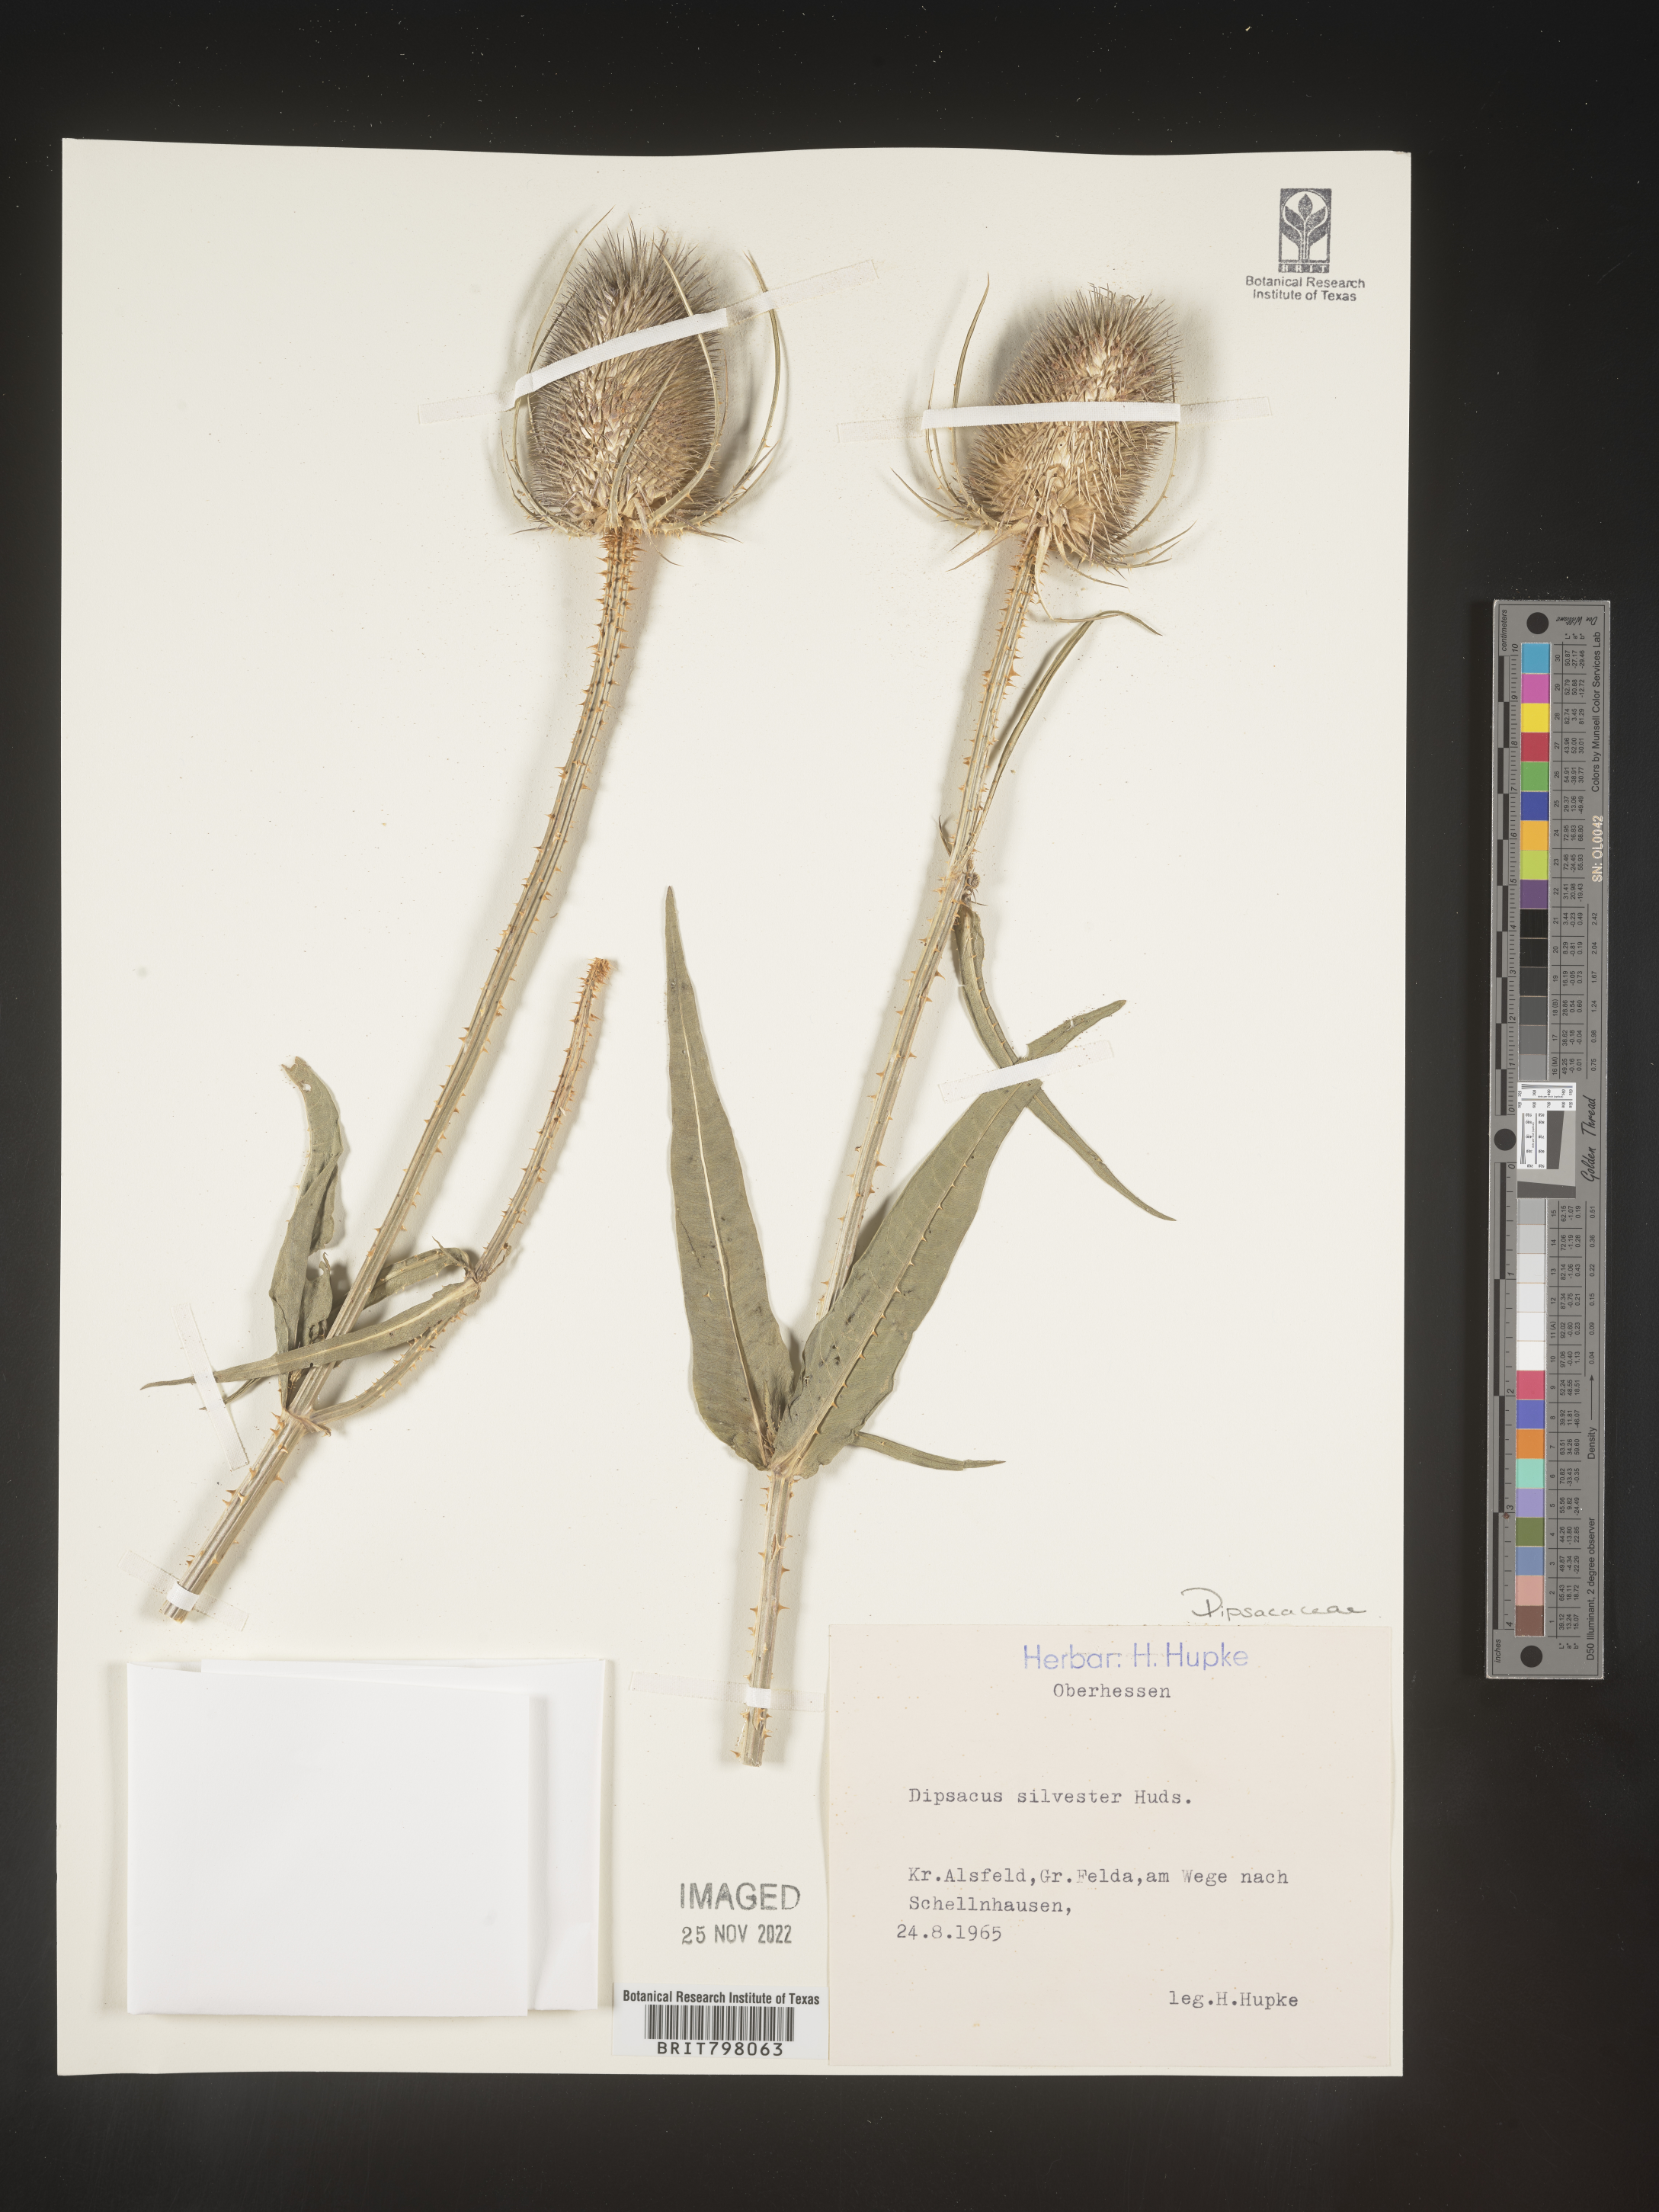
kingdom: Plantae
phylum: Tracheophyta
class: Magnoliopsida
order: Dipsacales
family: Caprifoliaceae
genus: Dipsacus
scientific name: Dipsacus
